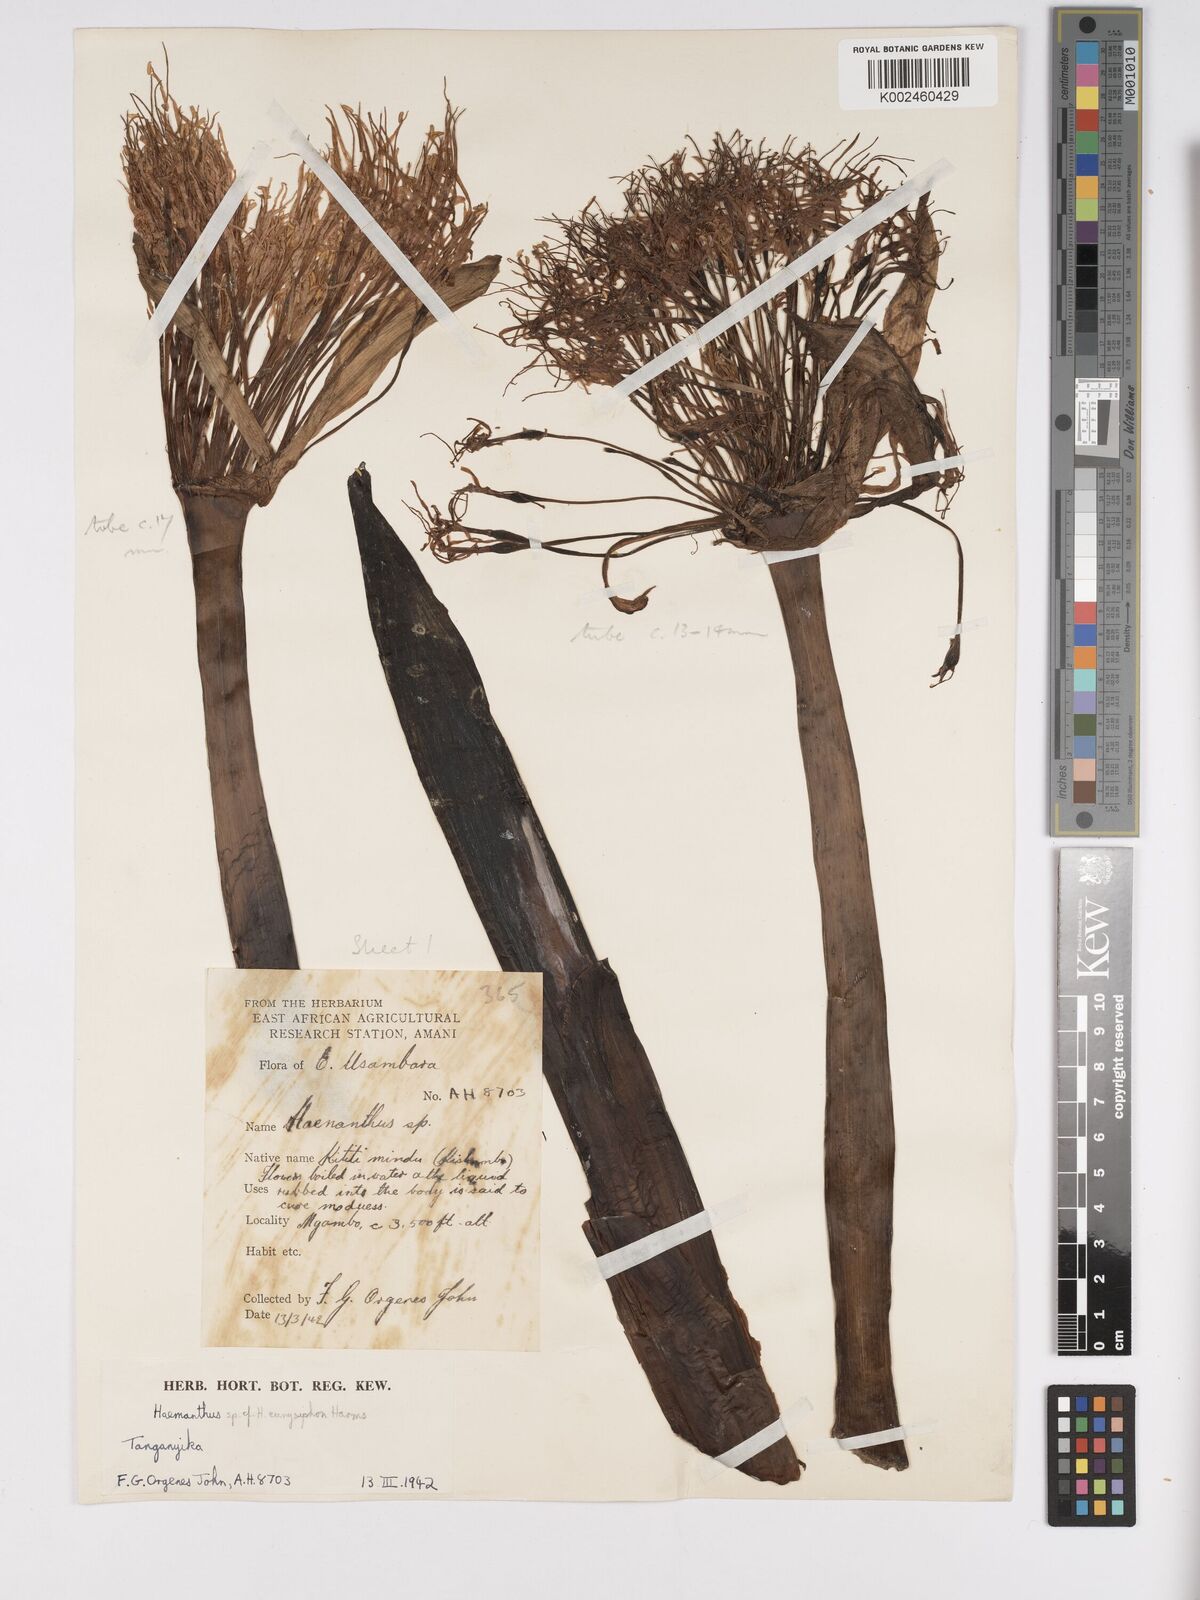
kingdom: Plantae
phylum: Tracheophyta
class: Liliopsida
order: Asparagales
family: Amaryllidaceae
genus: Scadoxus
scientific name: Scadoxus multiflorus
